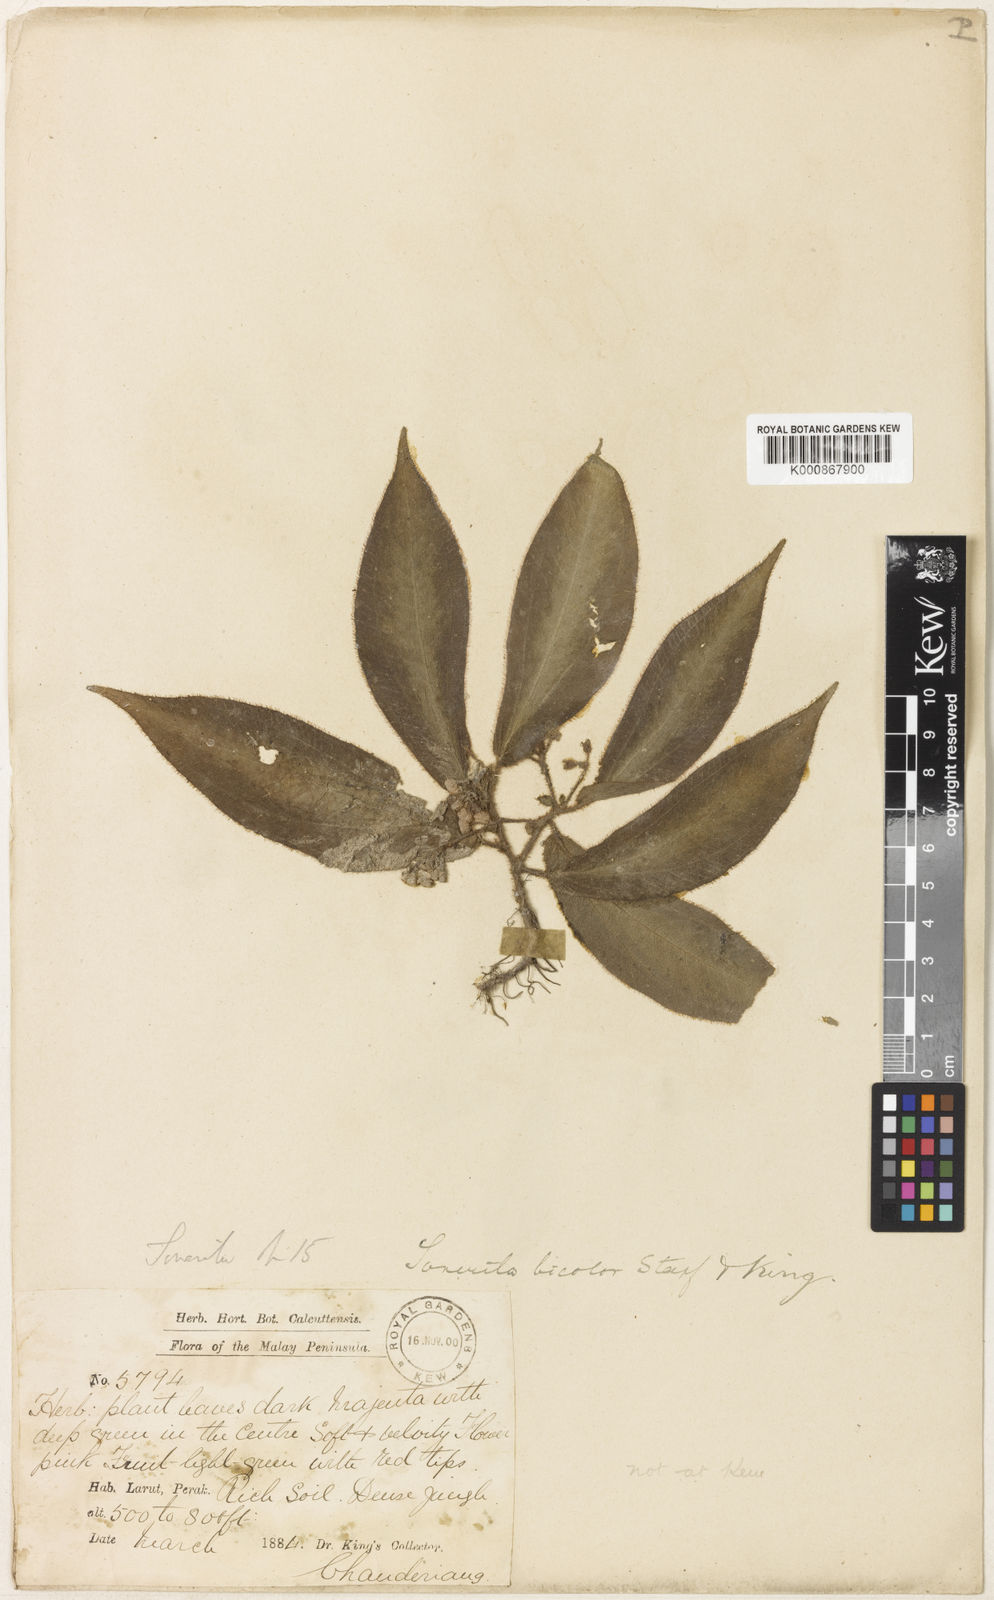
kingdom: Plantae
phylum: Tracheophyta
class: Magnoliopsida
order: Myrtales
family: Melastomataceae
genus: Sonerila
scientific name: Sonerila bicolor
